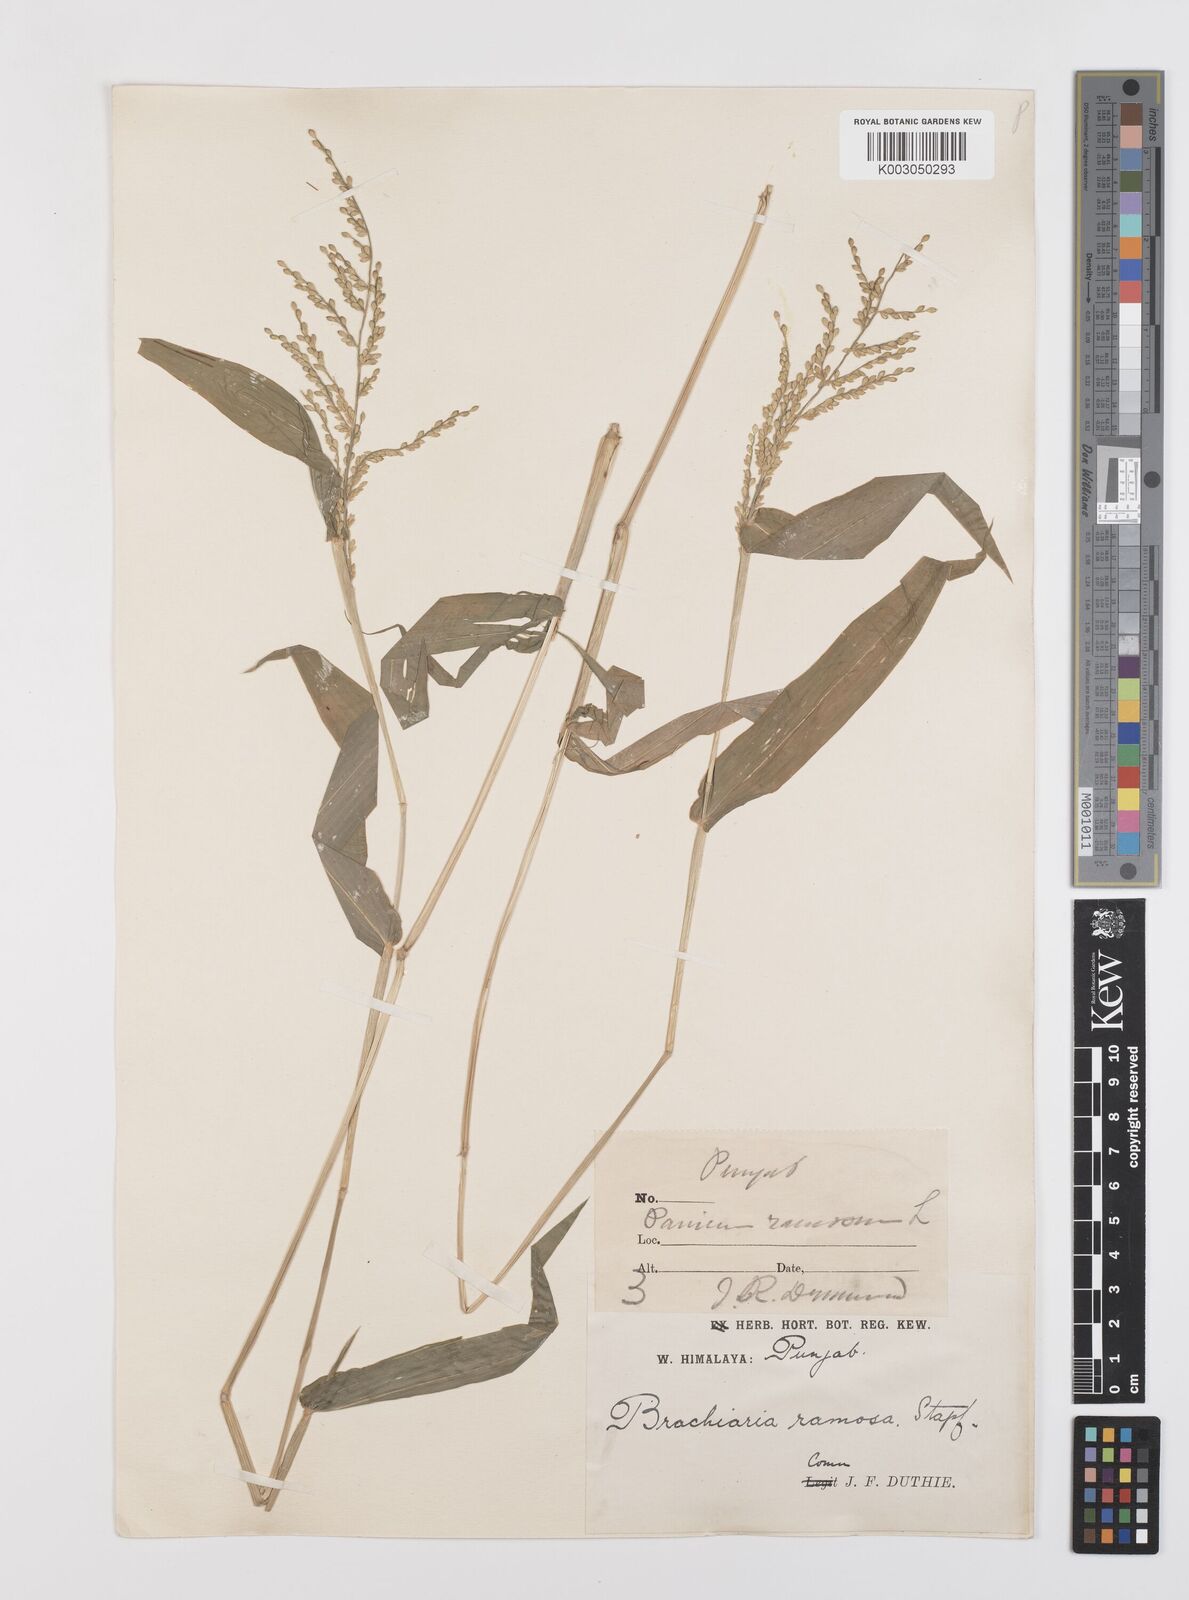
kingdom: Plantae
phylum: Tracheophyta
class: Liliopsida
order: Poales
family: Poaceae
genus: Urochloa
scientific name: Urochloa ramosa
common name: Browntop millet
